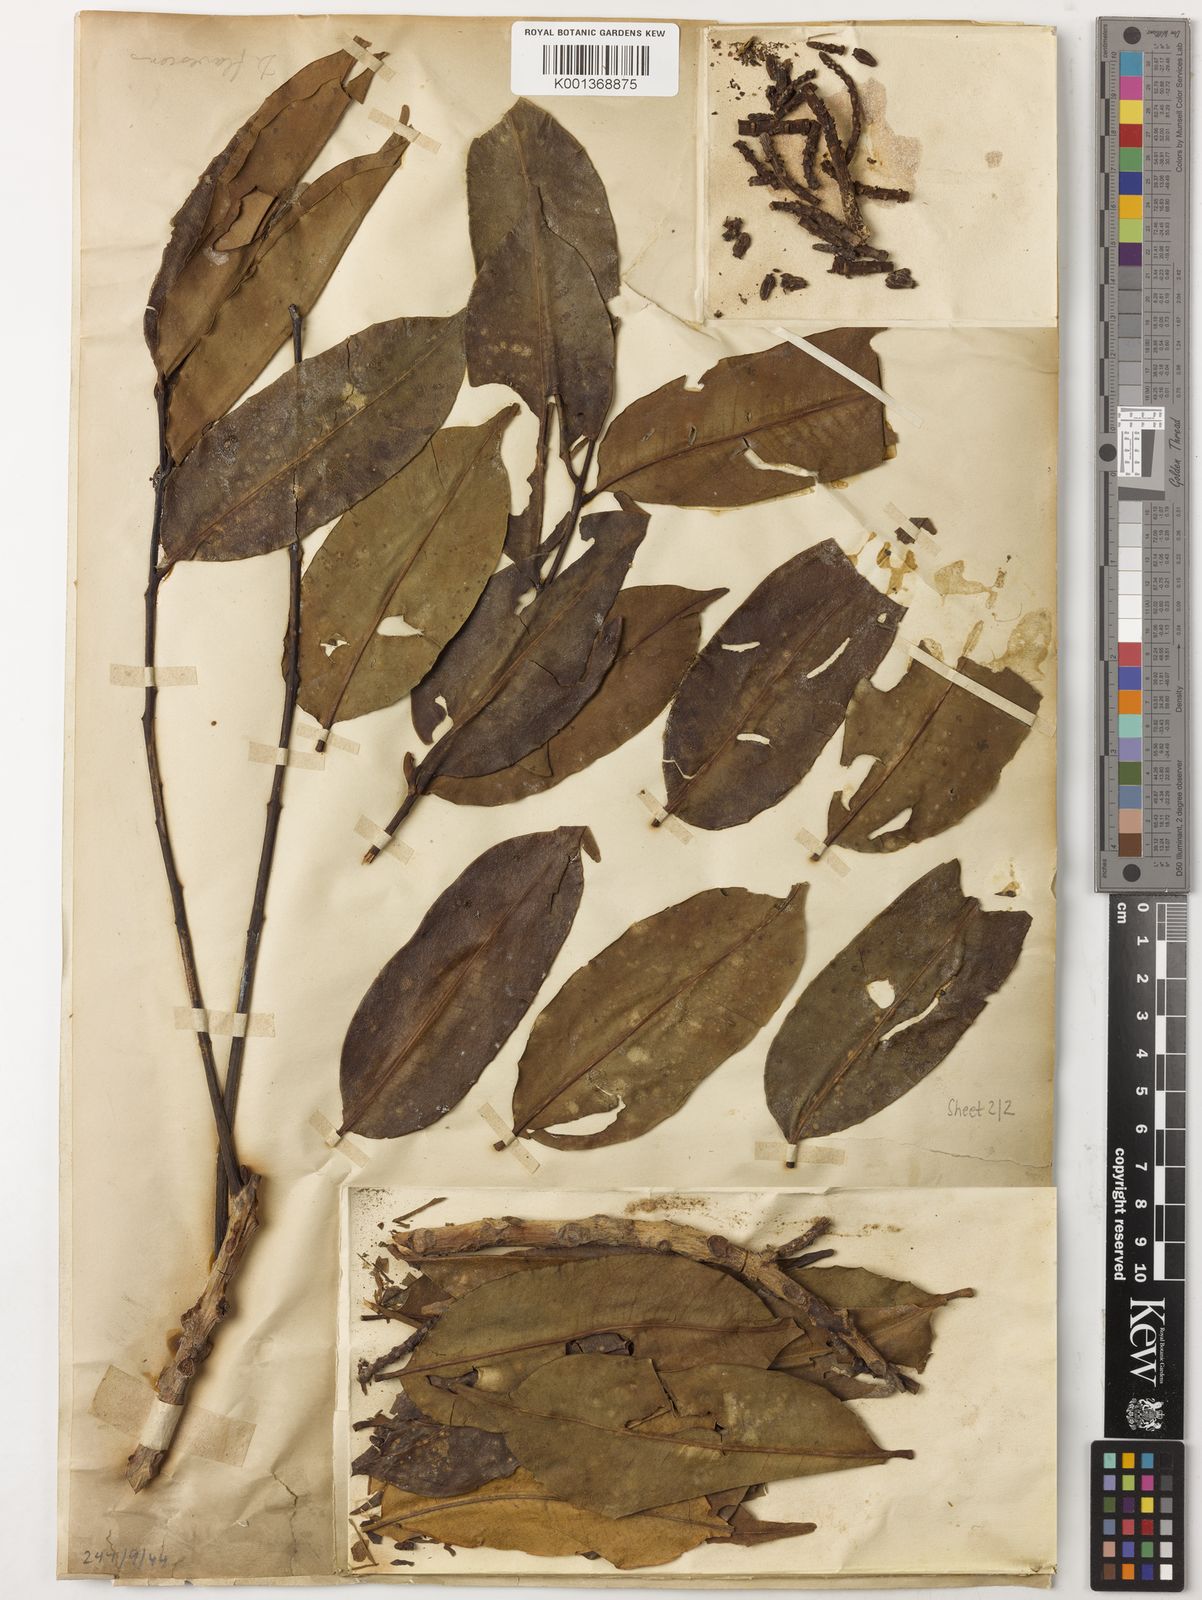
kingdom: Plantae
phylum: Tracheophyta
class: Magnoliopsida
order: Sapindales
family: Meliaceae
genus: Dysoxylum
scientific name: Dysoxylum flavescens
